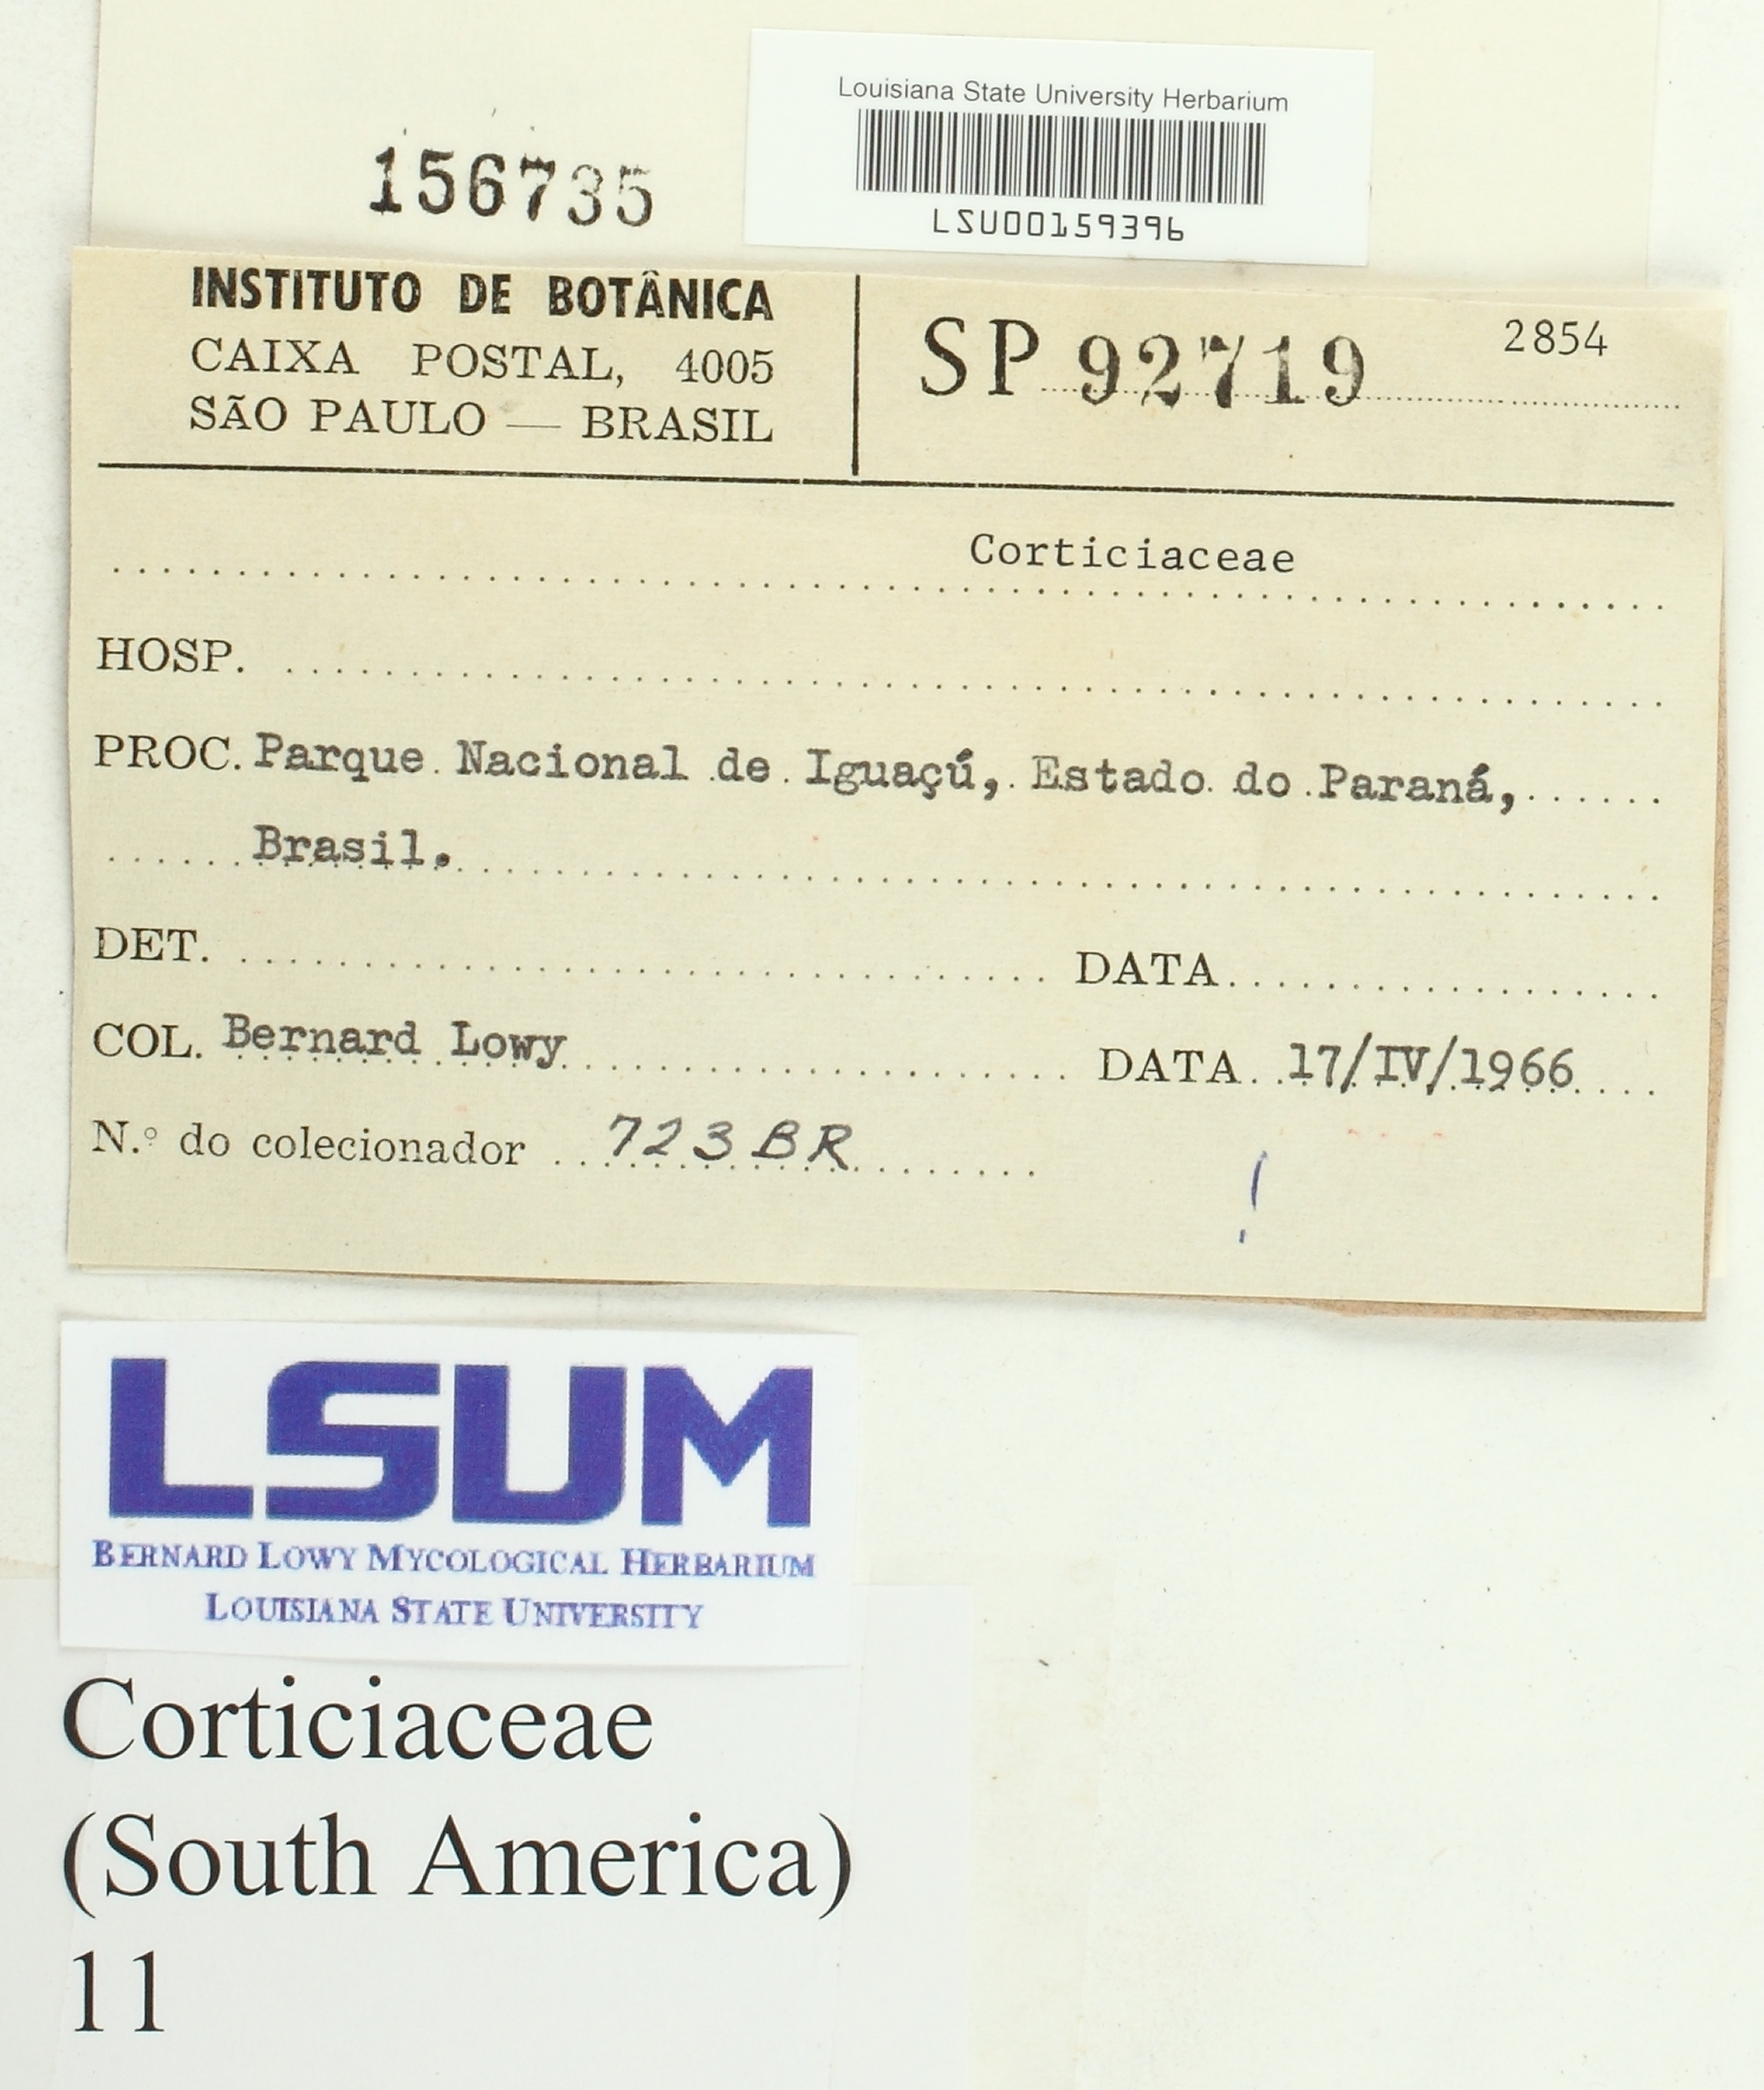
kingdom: Fungi
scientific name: Fungi
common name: Fungi
